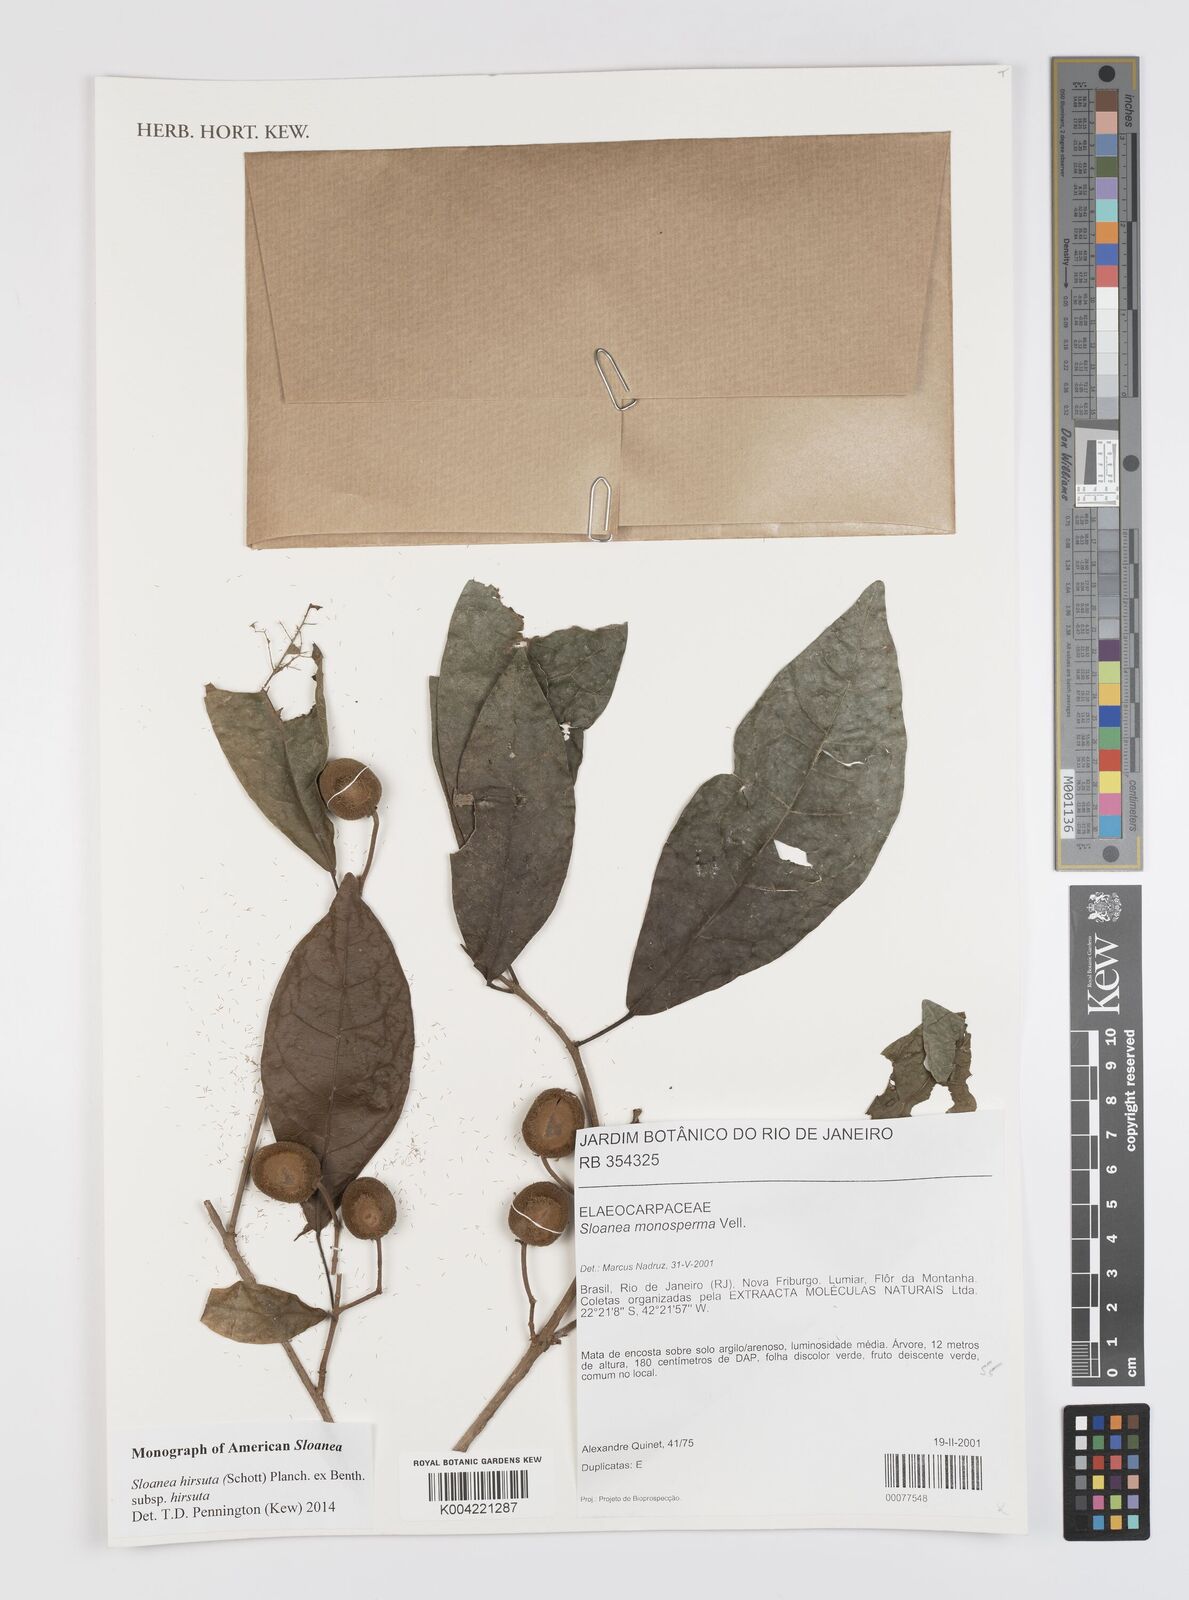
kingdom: Plantae
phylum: Tracheophyta
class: Magnoliopsida
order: Oxalidales
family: Elaeocarpaceae
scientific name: Elaeocarpaceae
